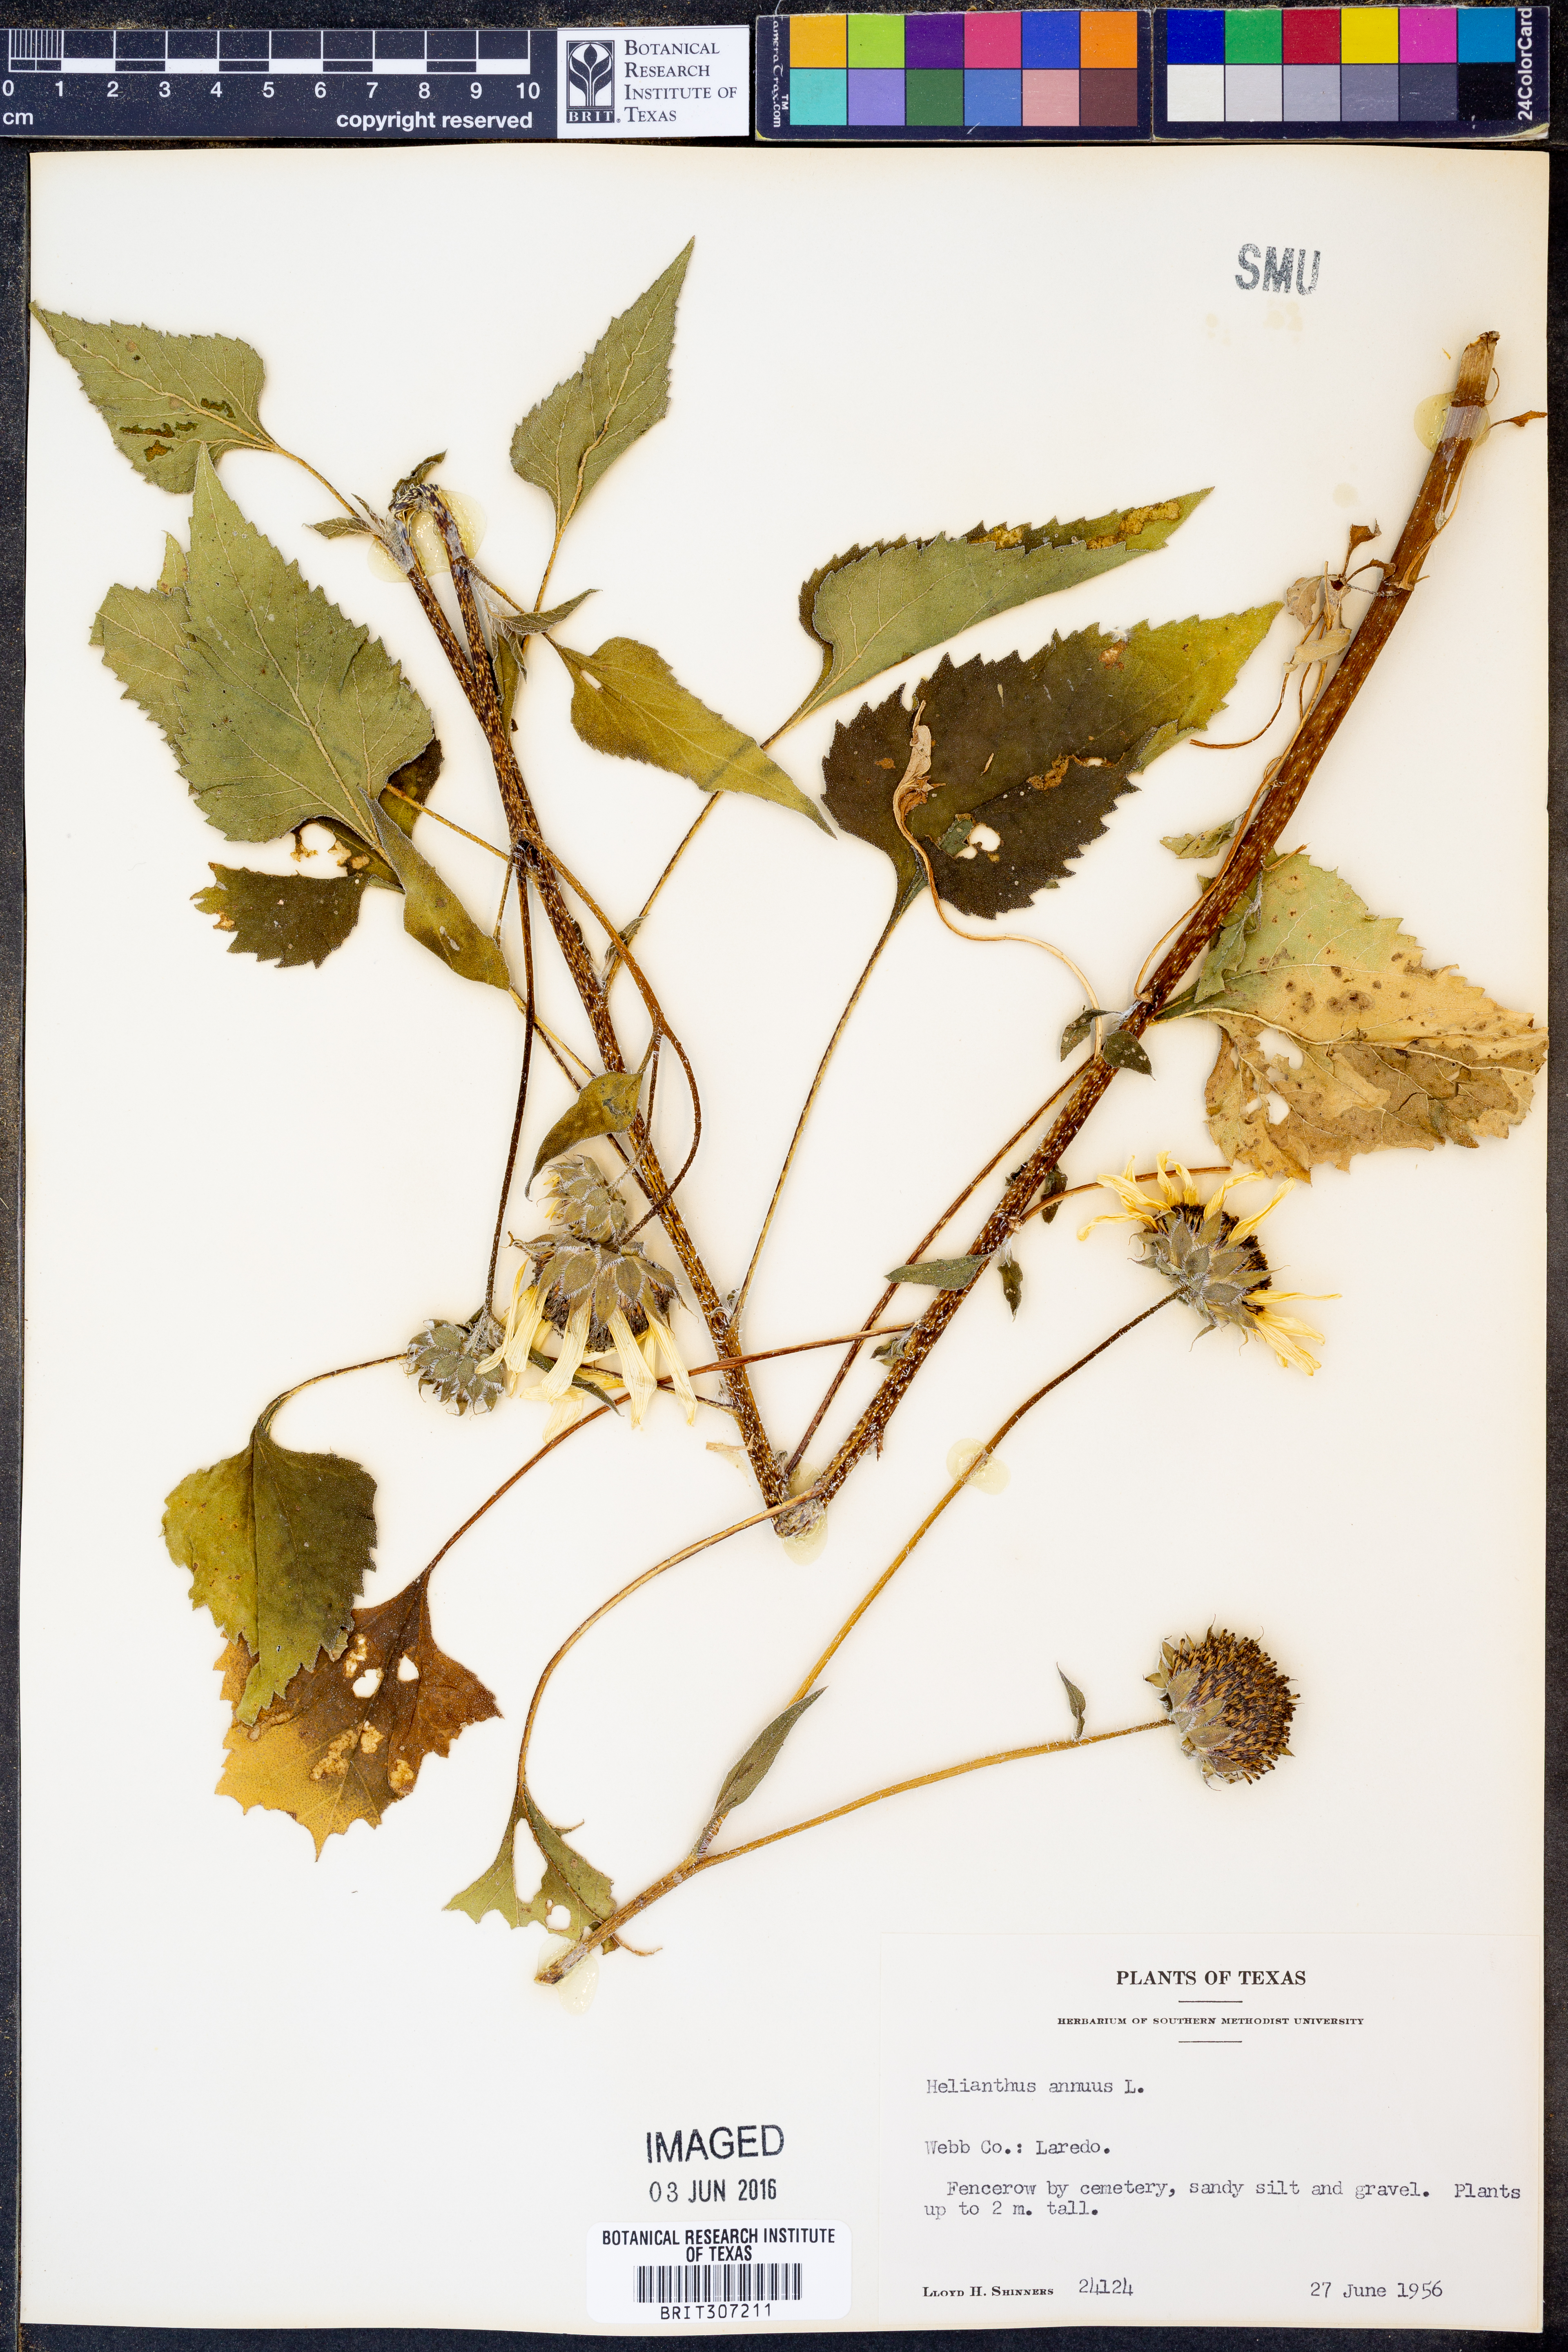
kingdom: Plantae
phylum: Tracheophyta
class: Magnoliopsida
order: Asterales
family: Asteraceae
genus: Helianthus
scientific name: Helianthus annuus
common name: Sunflower
